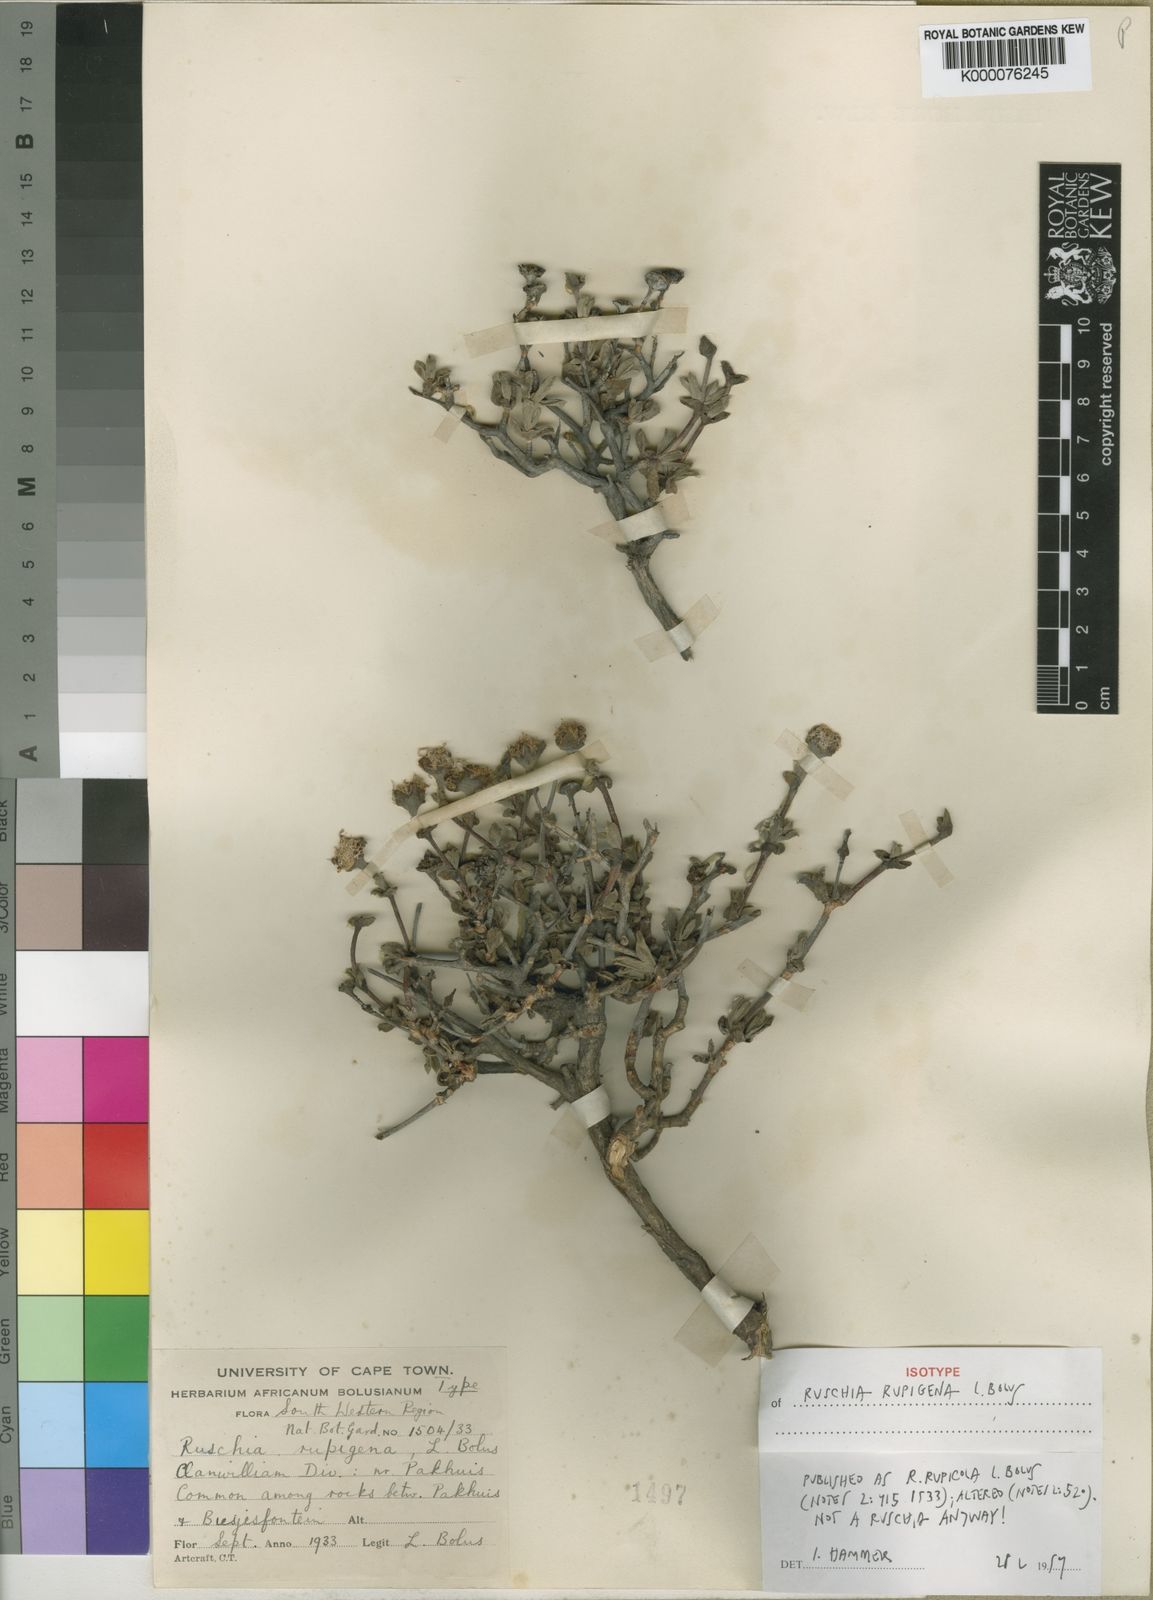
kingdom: Plantae
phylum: Tracheophyta
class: Magnoliopsida
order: Caryophyllales
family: Aizoaceae
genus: Ruschia
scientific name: Ruschia
